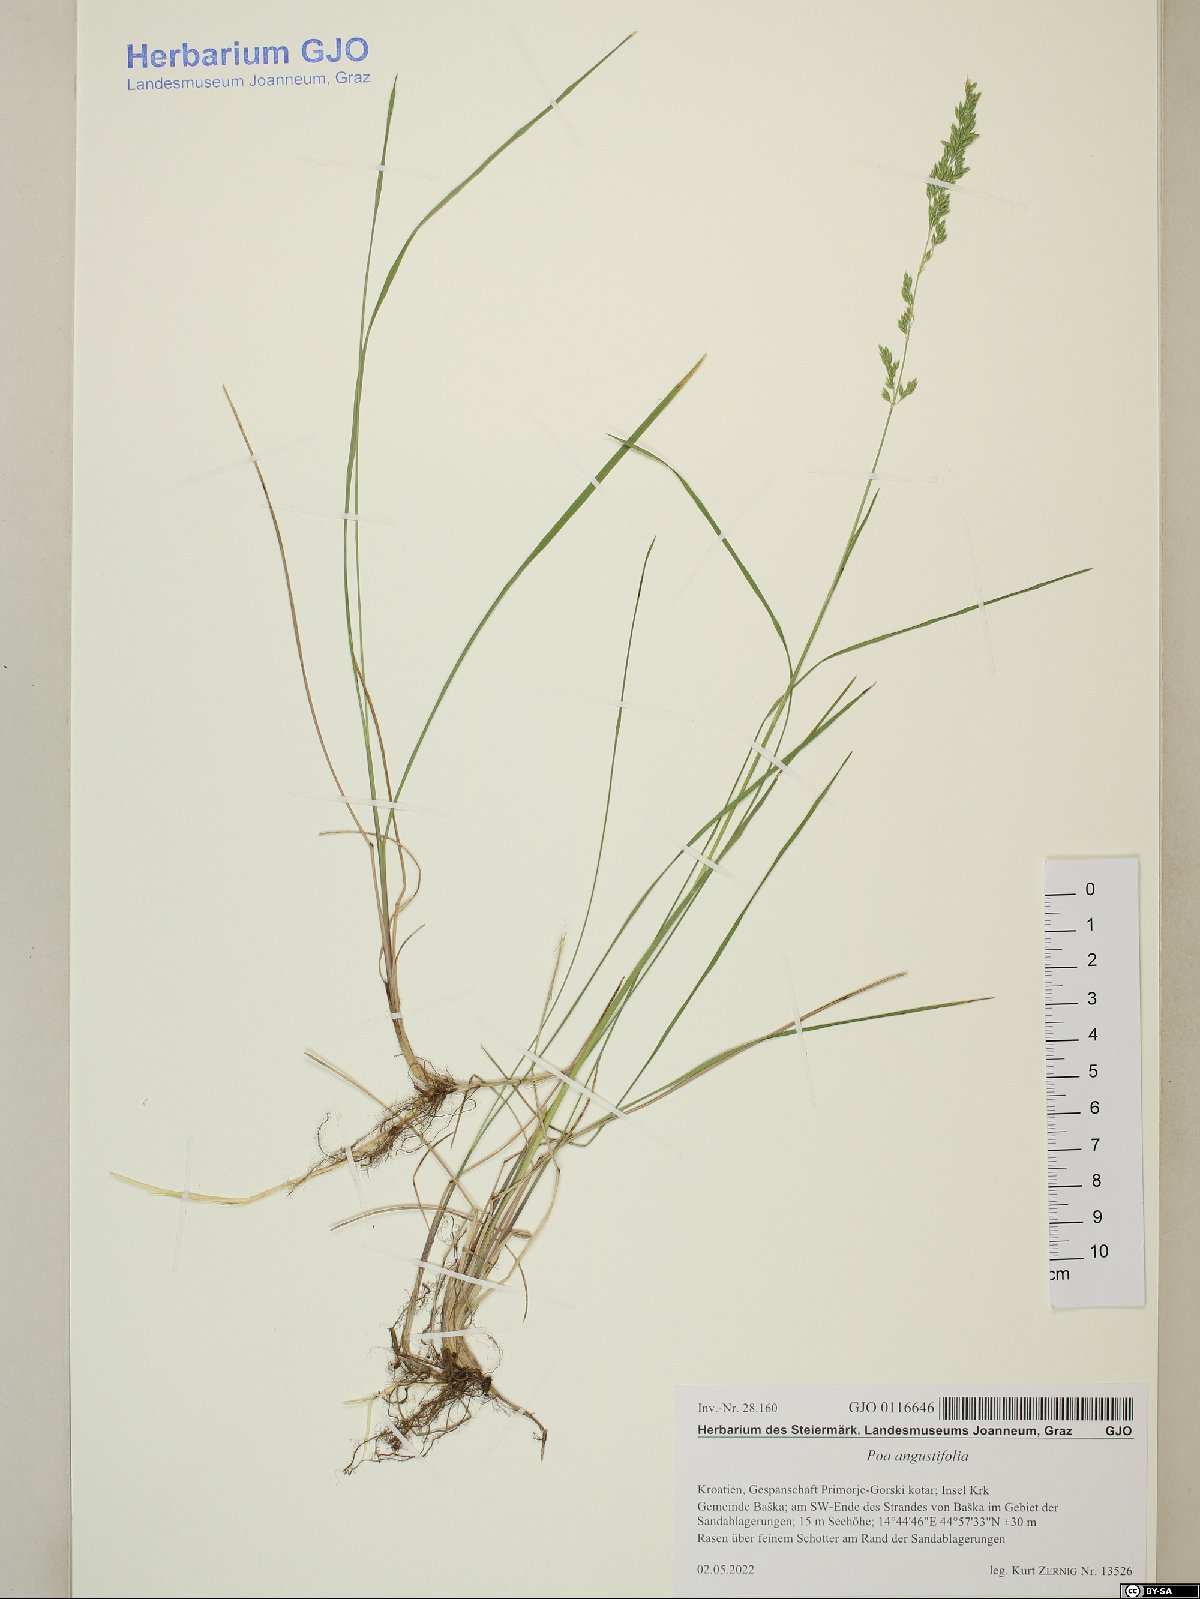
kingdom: Plantae
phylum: Tracheophyta
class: Liliopsida
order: Poales
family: Poaceae
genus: Poa
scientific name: Poa angustifolia
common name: Narrow-leaved meadow-grass
